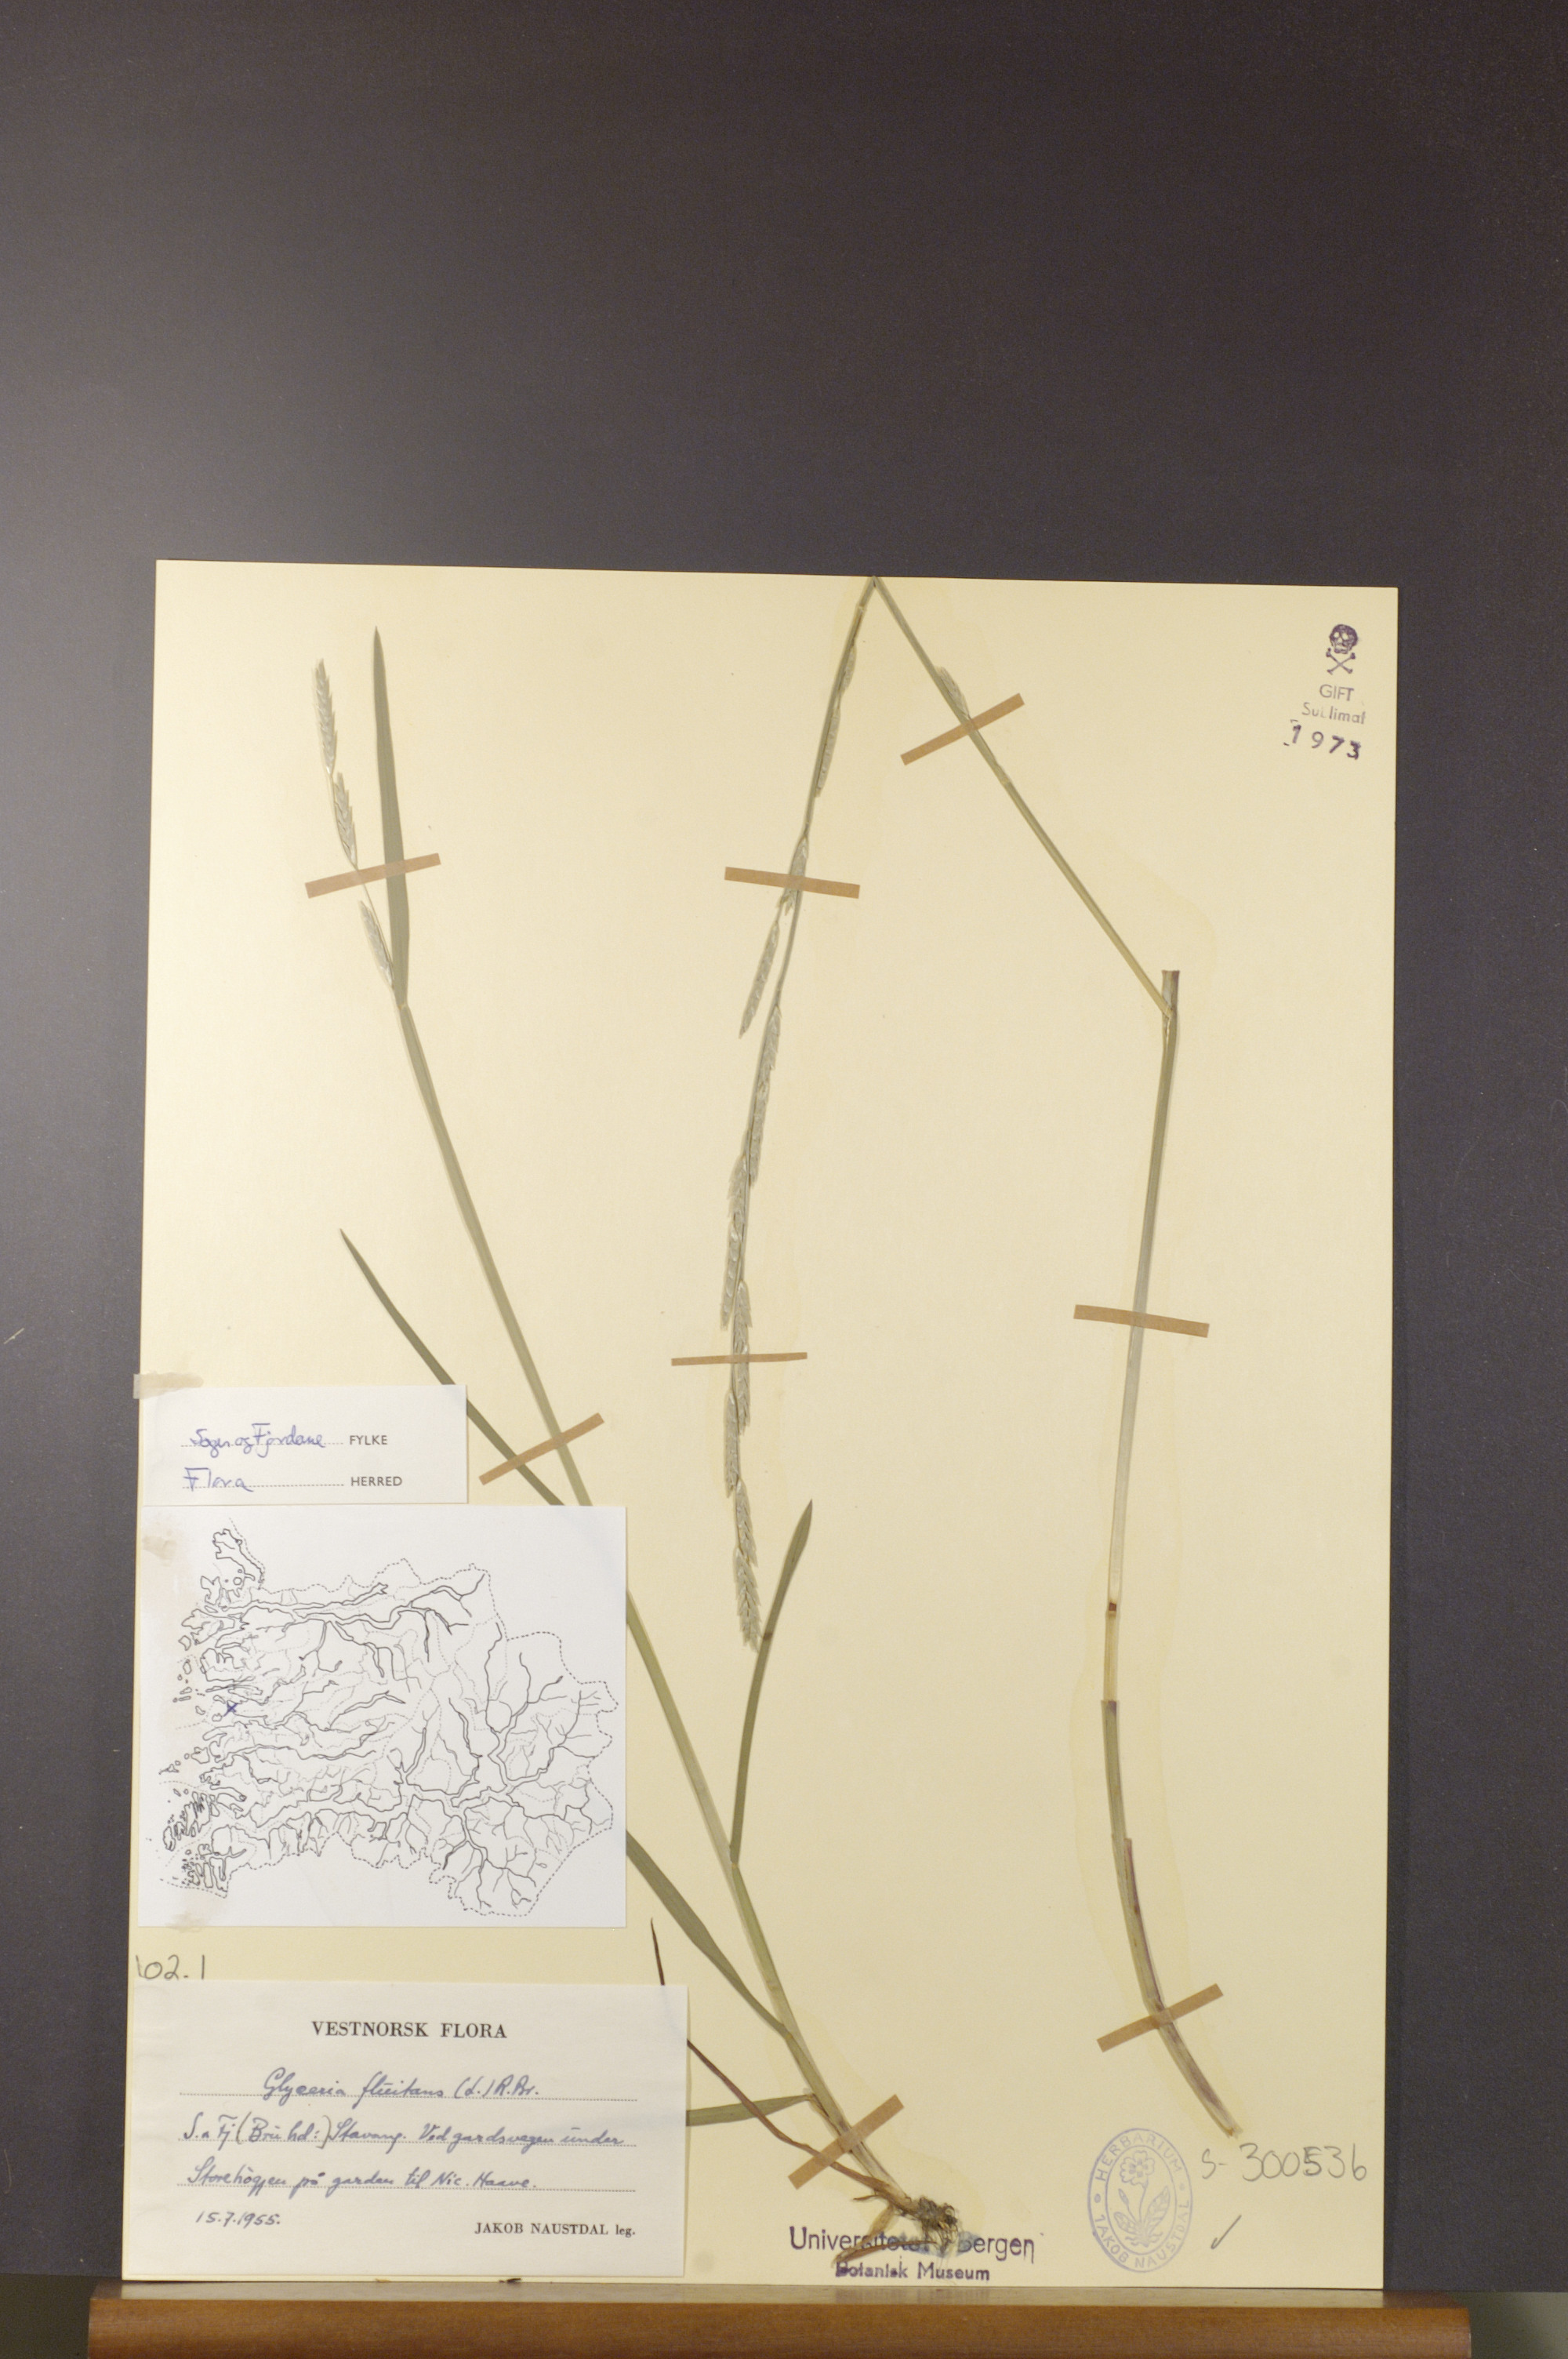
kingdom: Plantae
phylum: Tracheophyta
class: Liliopsida
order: Poales
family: Poaceae
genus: Glyceria
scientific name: Glyceria fluitans
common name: Floating sweet-grass
